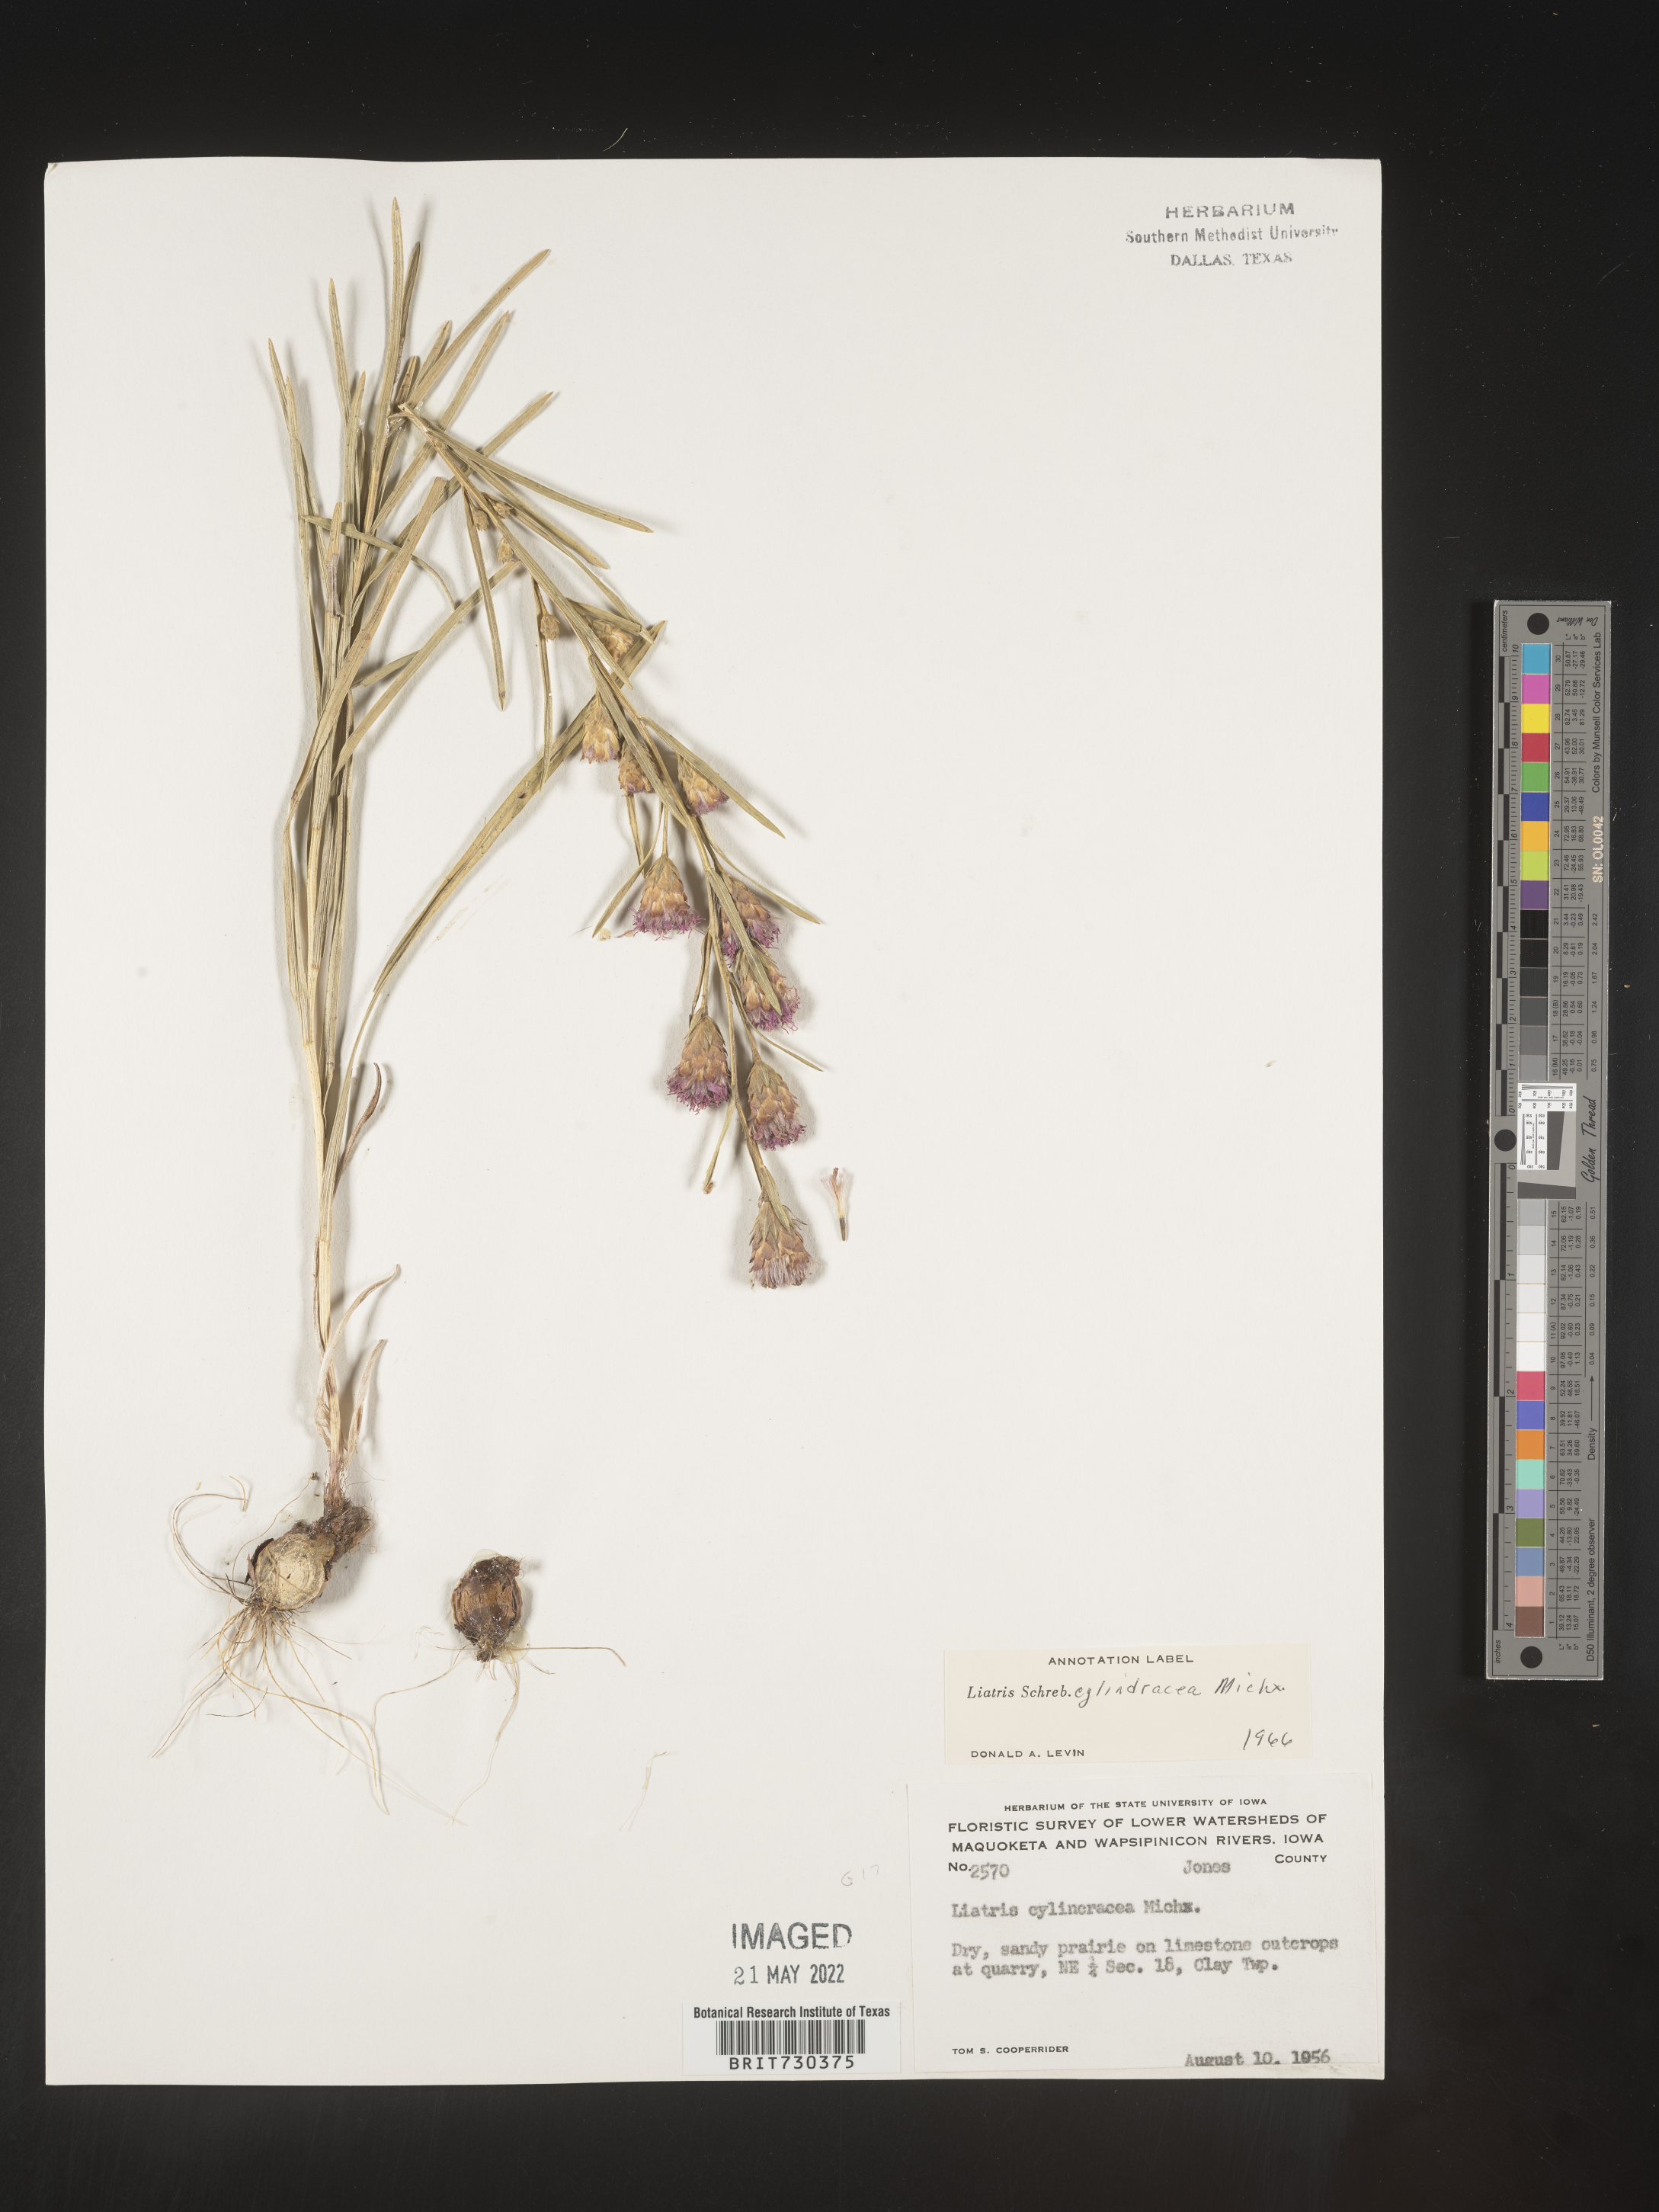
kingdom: Plantae
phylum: Tracheophyta
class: Magnoliopsida
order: Asterales
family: Asteraceae
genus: Liatris
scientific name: Liatris cylindracea
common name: Few-head blazingstar
